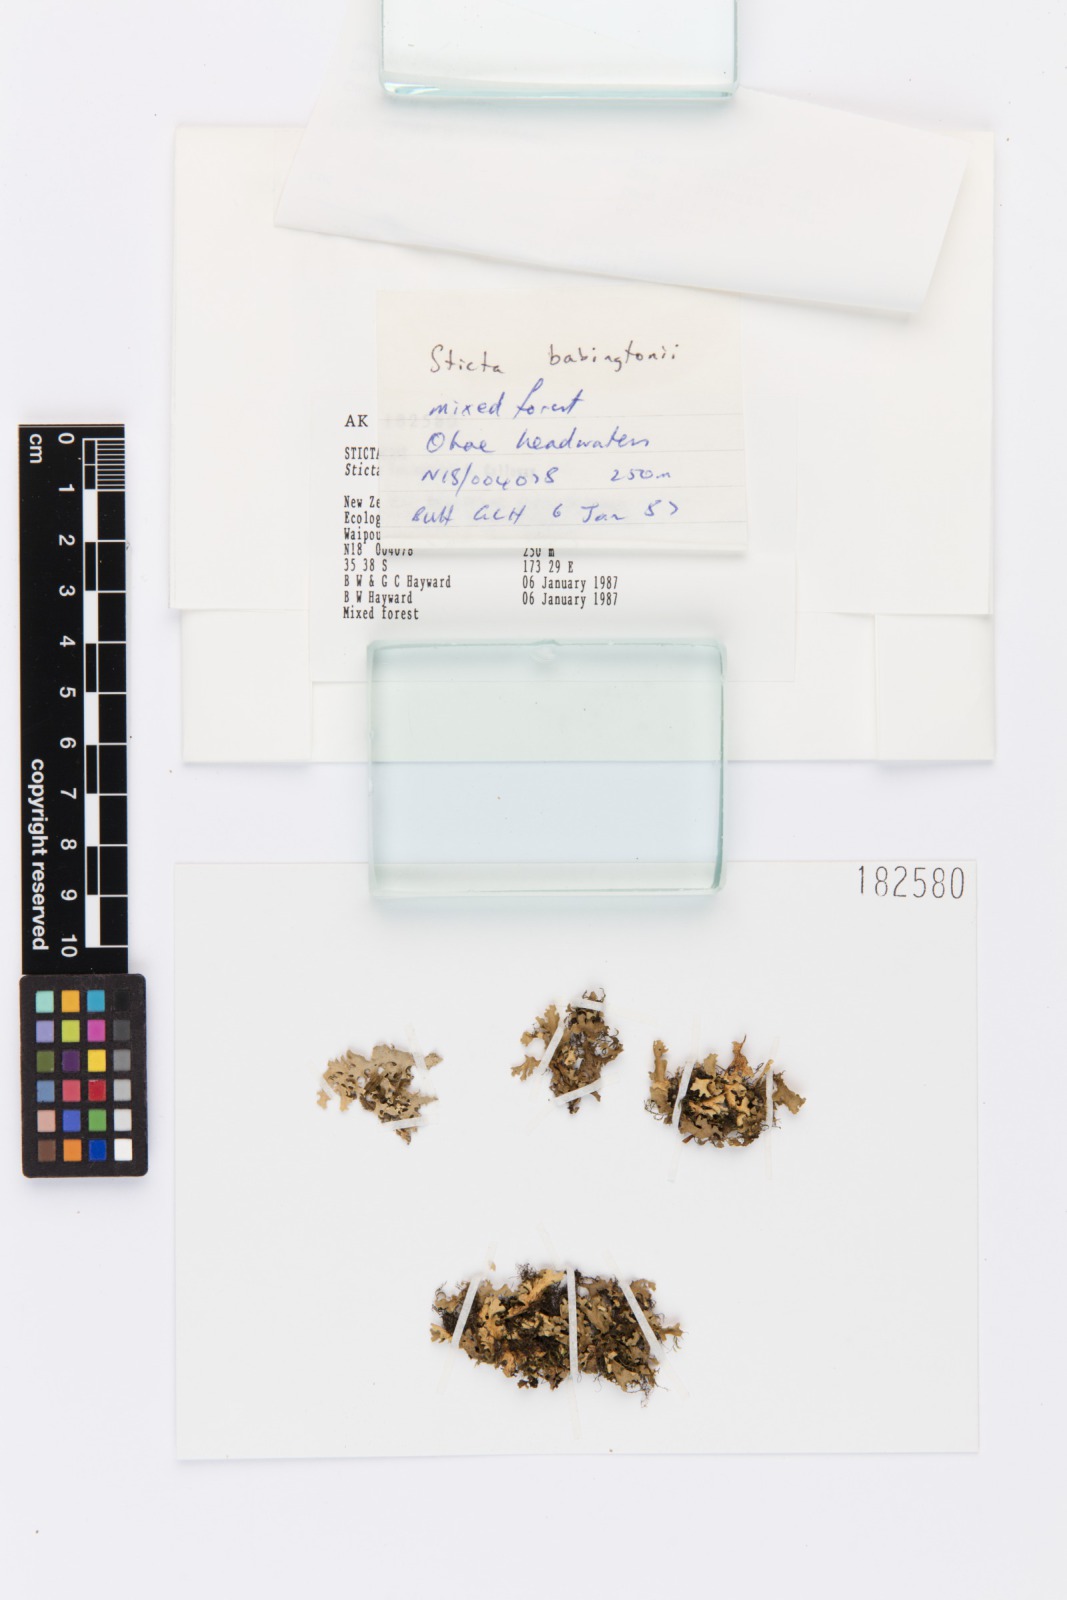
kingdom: Fungi
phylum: Ascomycota
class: Lecanoromycetes
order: Peltigerales
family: Lobariaceae
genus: Sticta
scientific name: Sticta babingtonii
